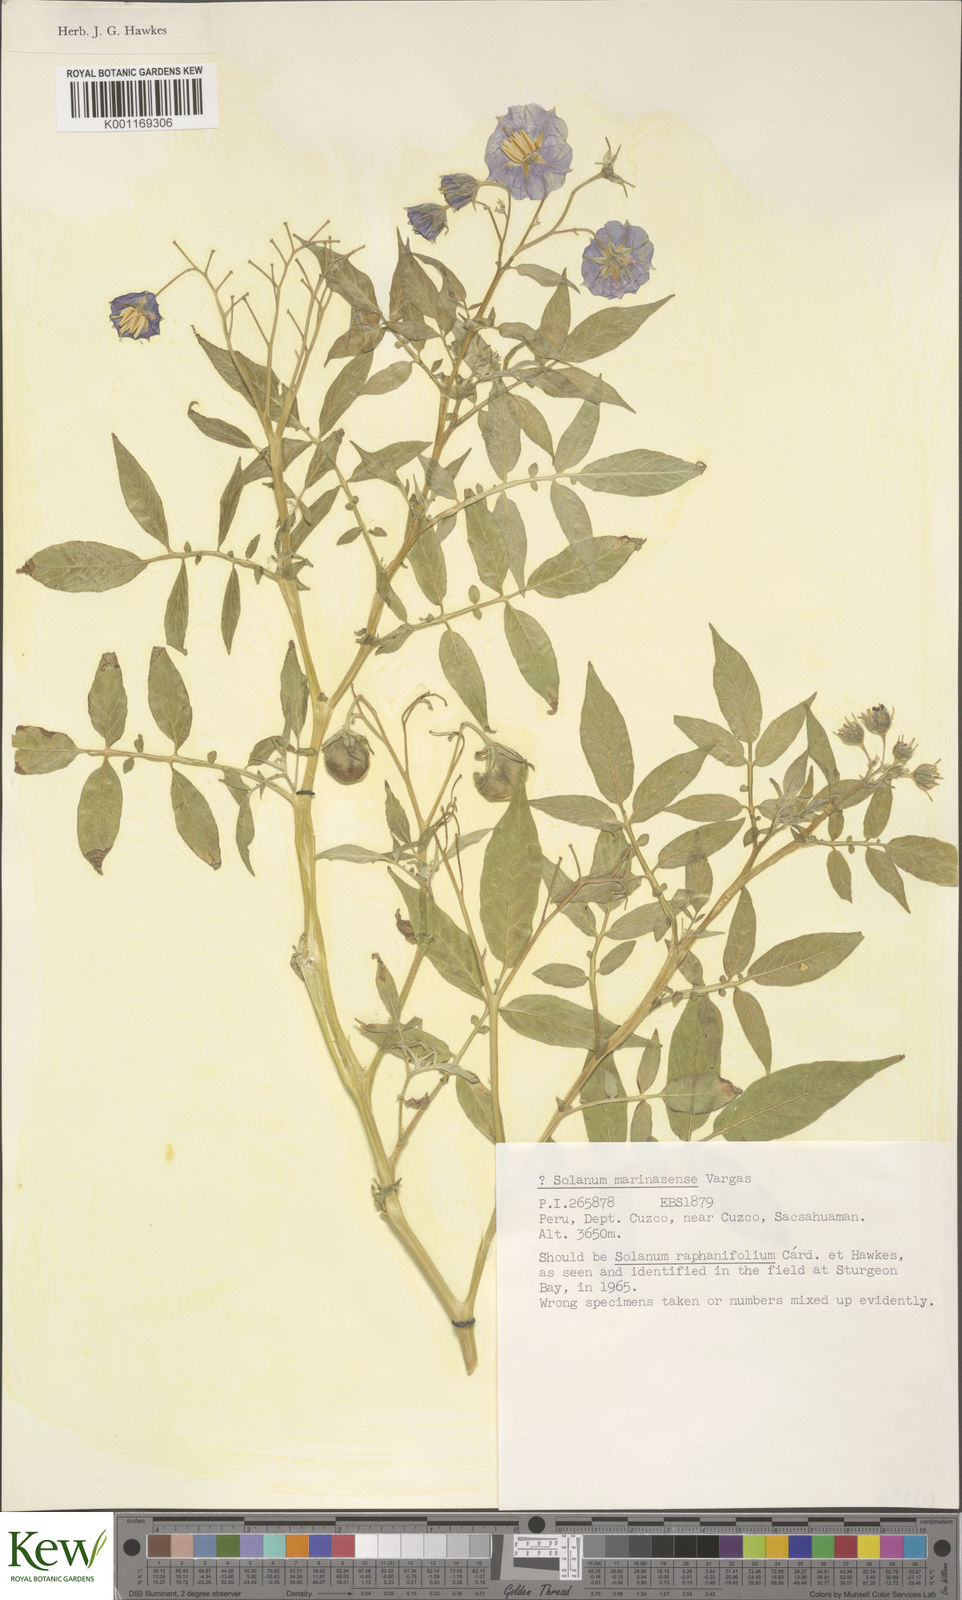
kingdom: Plantae
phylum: Tracheophyta
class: Magnoliopsida
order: Solanales
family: Solanaceae
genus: Solanum
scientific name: Solanum candolleanum
